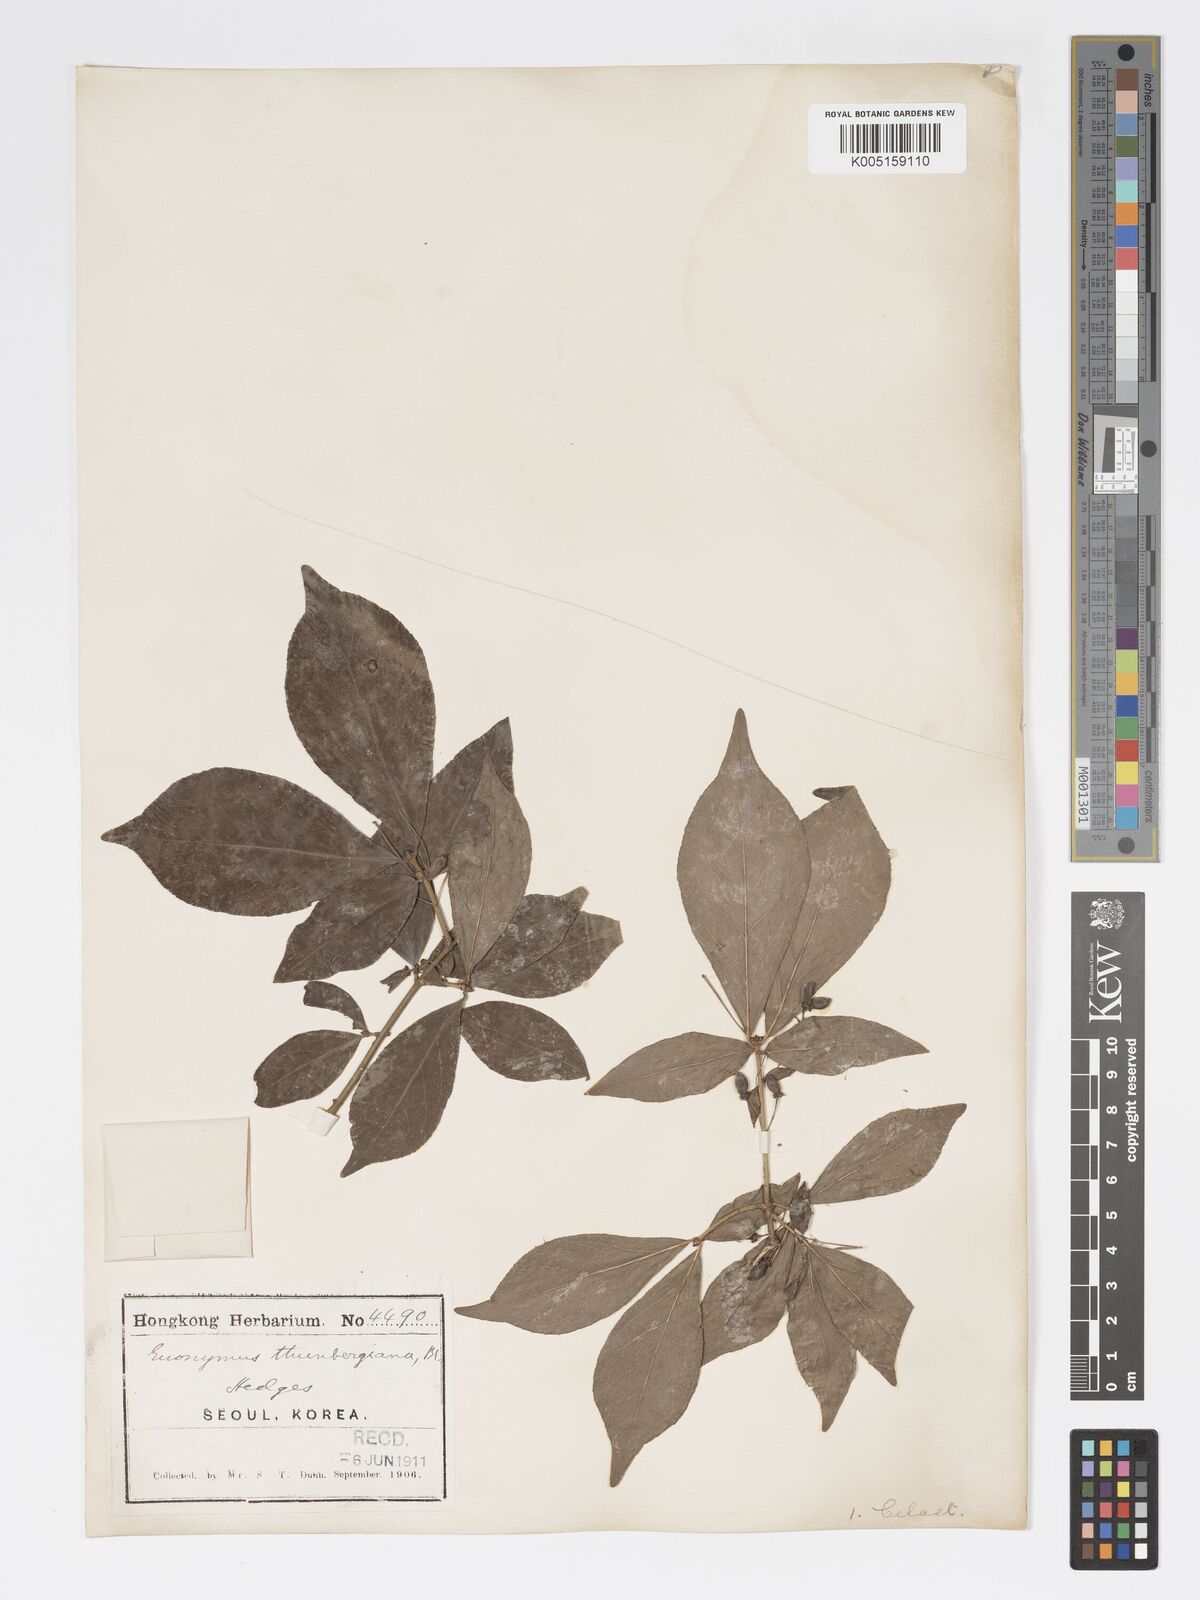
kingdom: Plantae
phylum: Tracheophyta
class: Magnoliopsida
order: Celastrales
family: Celastraceae
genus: Euonymus
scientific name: Euonymus
